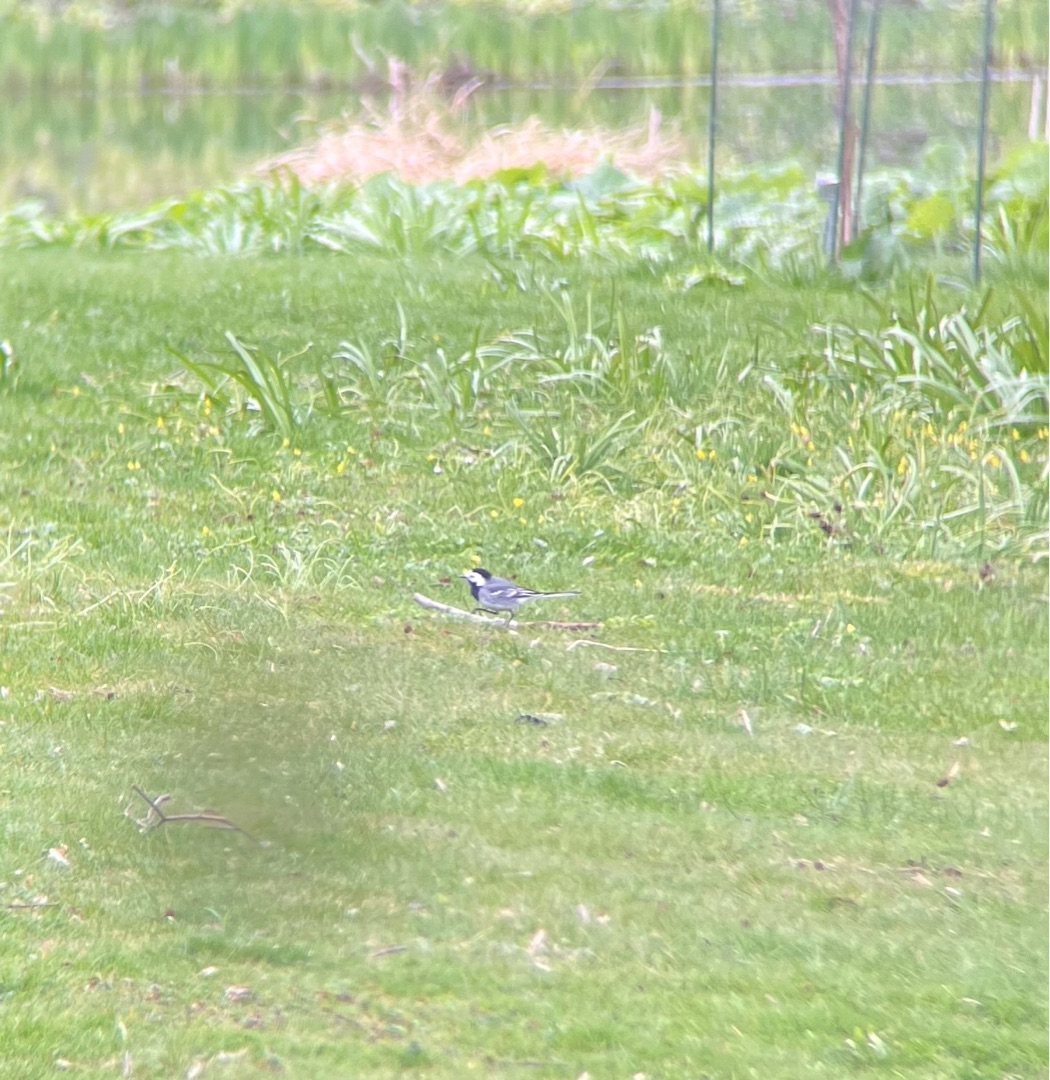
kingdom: Animalia
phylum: Chordata
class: Aves
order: Passeriformes
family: Motacillidae
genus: Motacilla
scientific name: Motacilla alba
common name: Hvid vipstjert
